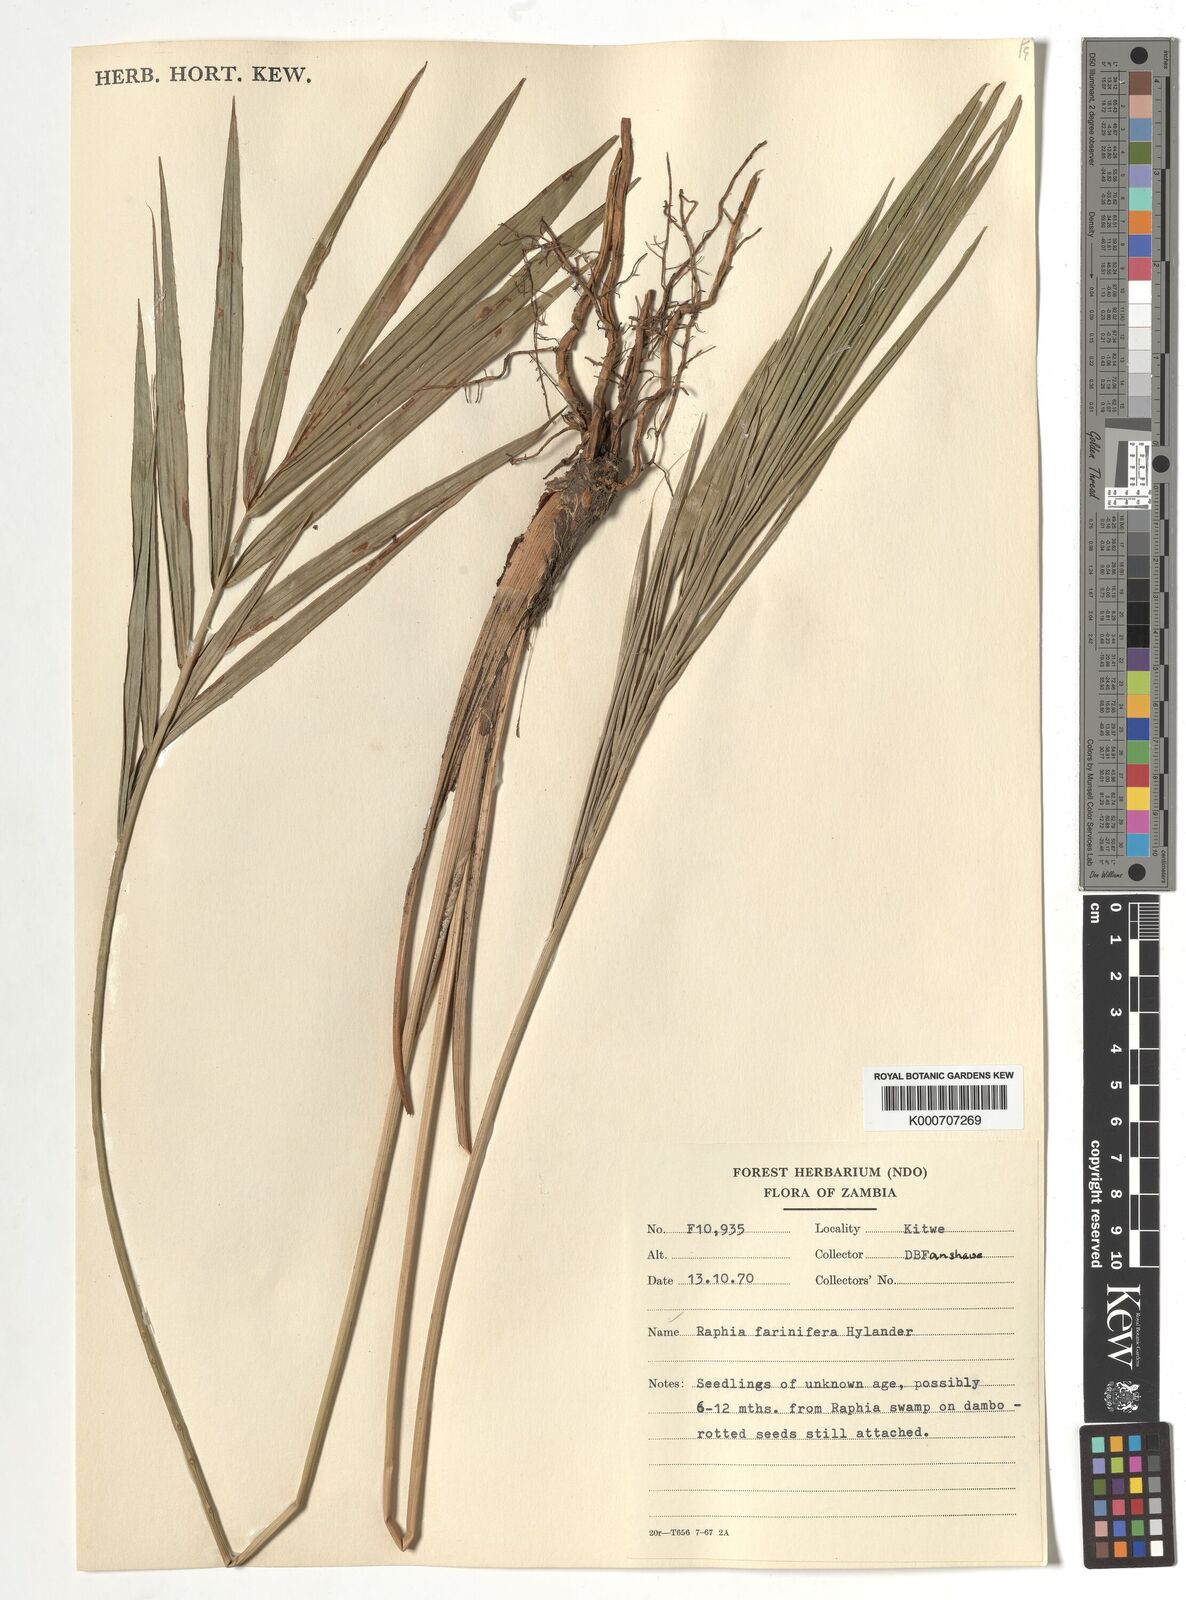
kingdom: Plantae
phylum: Tracheophyta
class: Liliopsida
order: Arecales
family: Arecaceae
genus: Raphia
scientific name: Raphia farinifera
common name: Raphia palm
